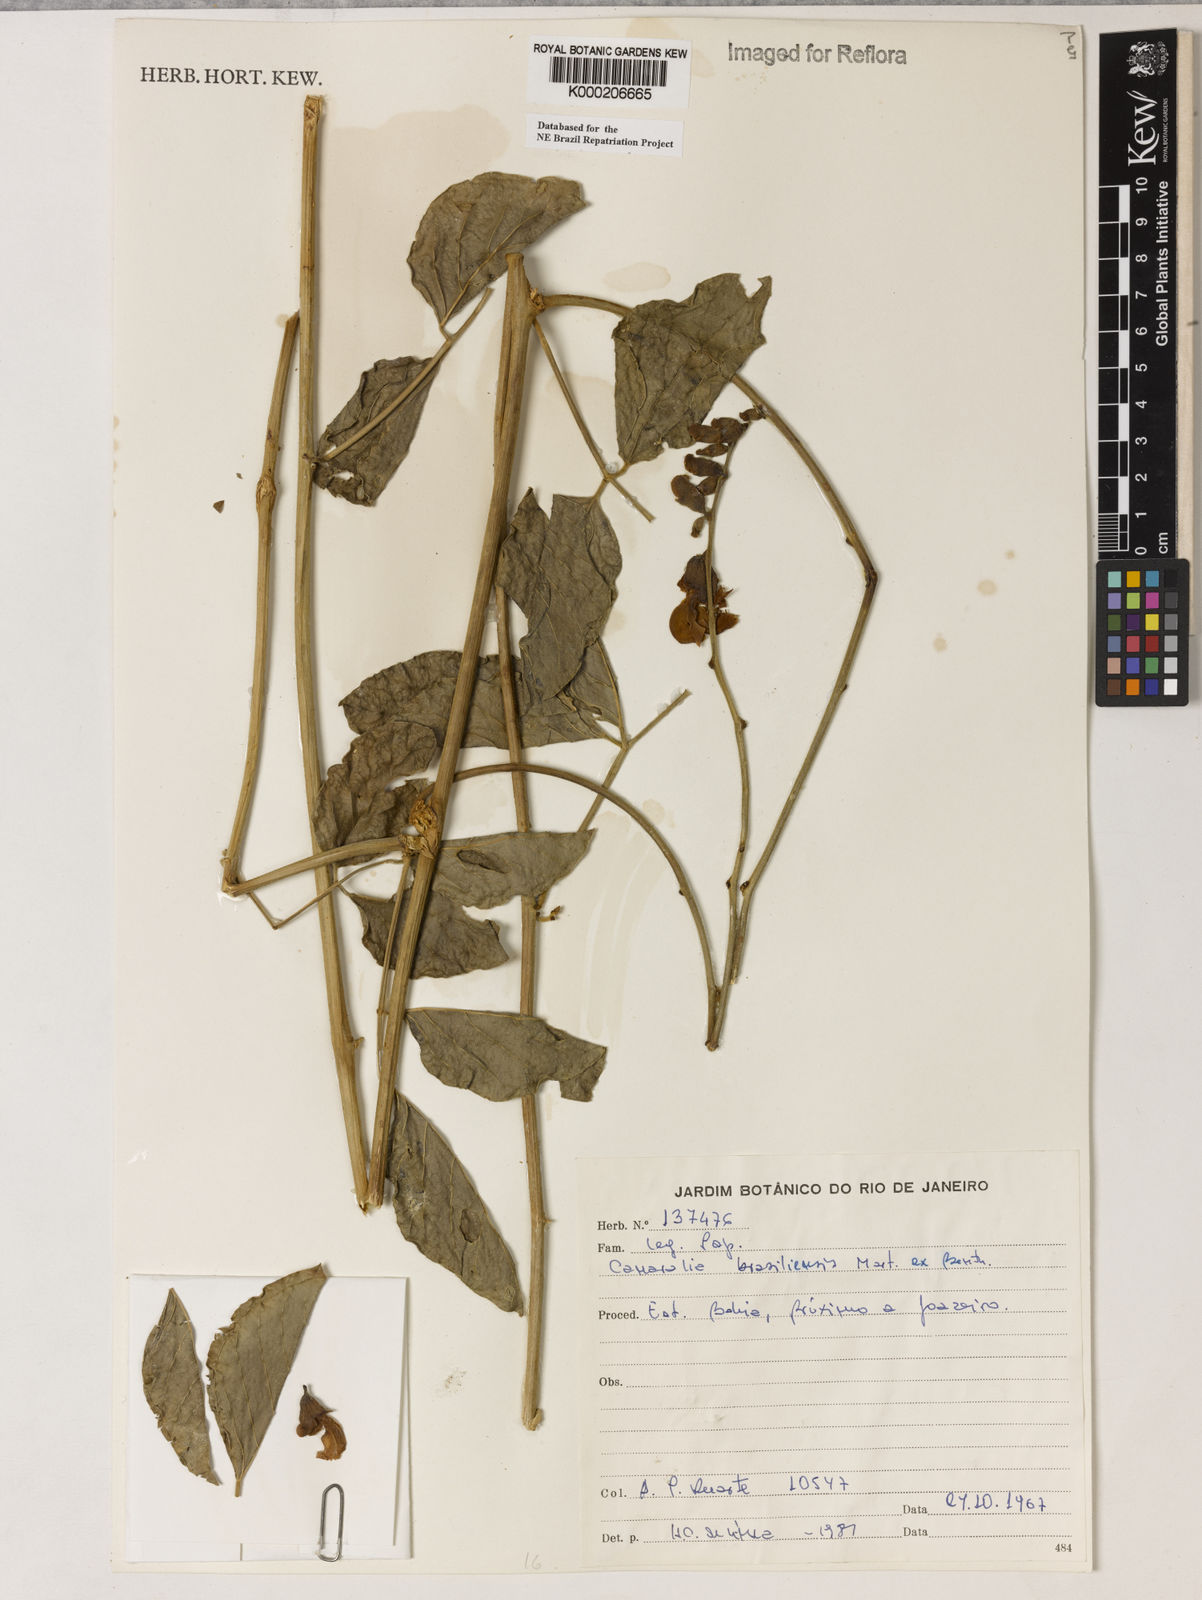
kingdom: Plantae
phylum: Tracheophyta
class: Magnoliopsida
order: Fabales
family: Fabaceae
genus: Canavalia
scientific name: Canavalia brasiliensis
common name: Barbicou-bean
